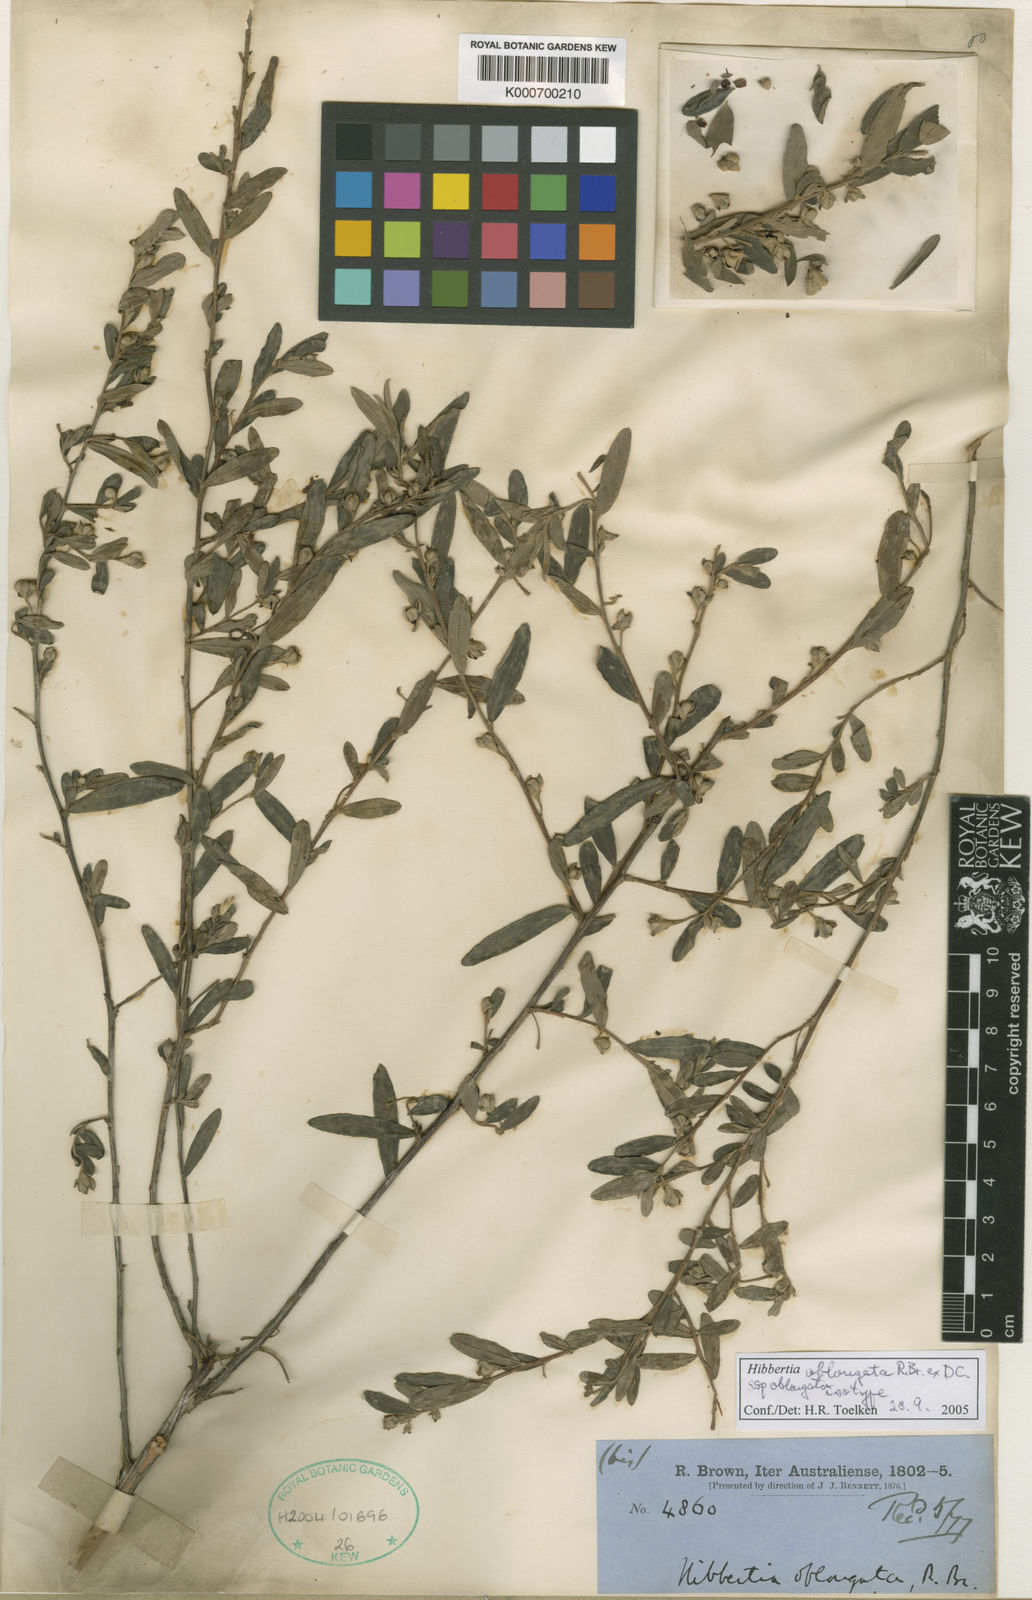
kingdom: Plantae
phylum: Tracheophyta
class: Magnoliopsida
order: Dilleniales
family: Dilleniaceae
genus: Hibbertia
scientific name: Hibbertia oblongata
